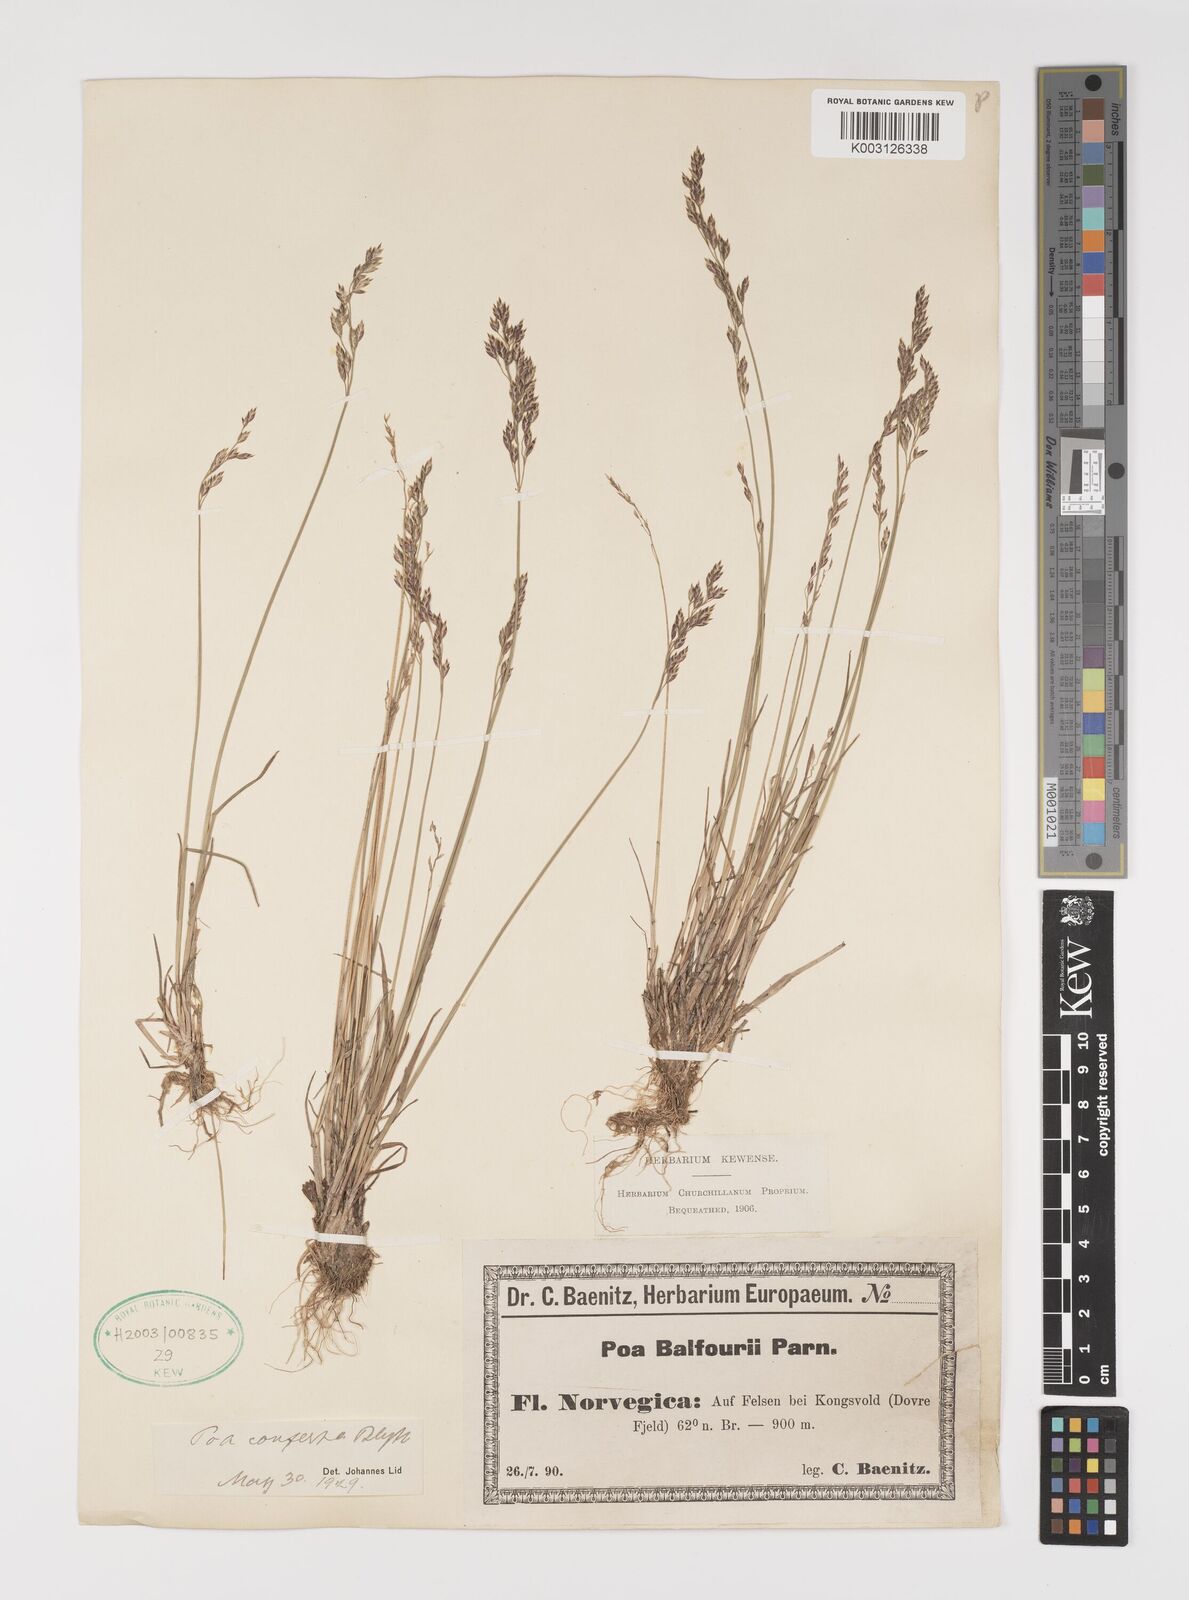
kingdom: Plantae
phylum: Tracheophyta
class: Liliopsida
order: Poales
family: Poaceae
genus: Poa
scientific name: Poa glauca
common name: Glaucous bluegrass
